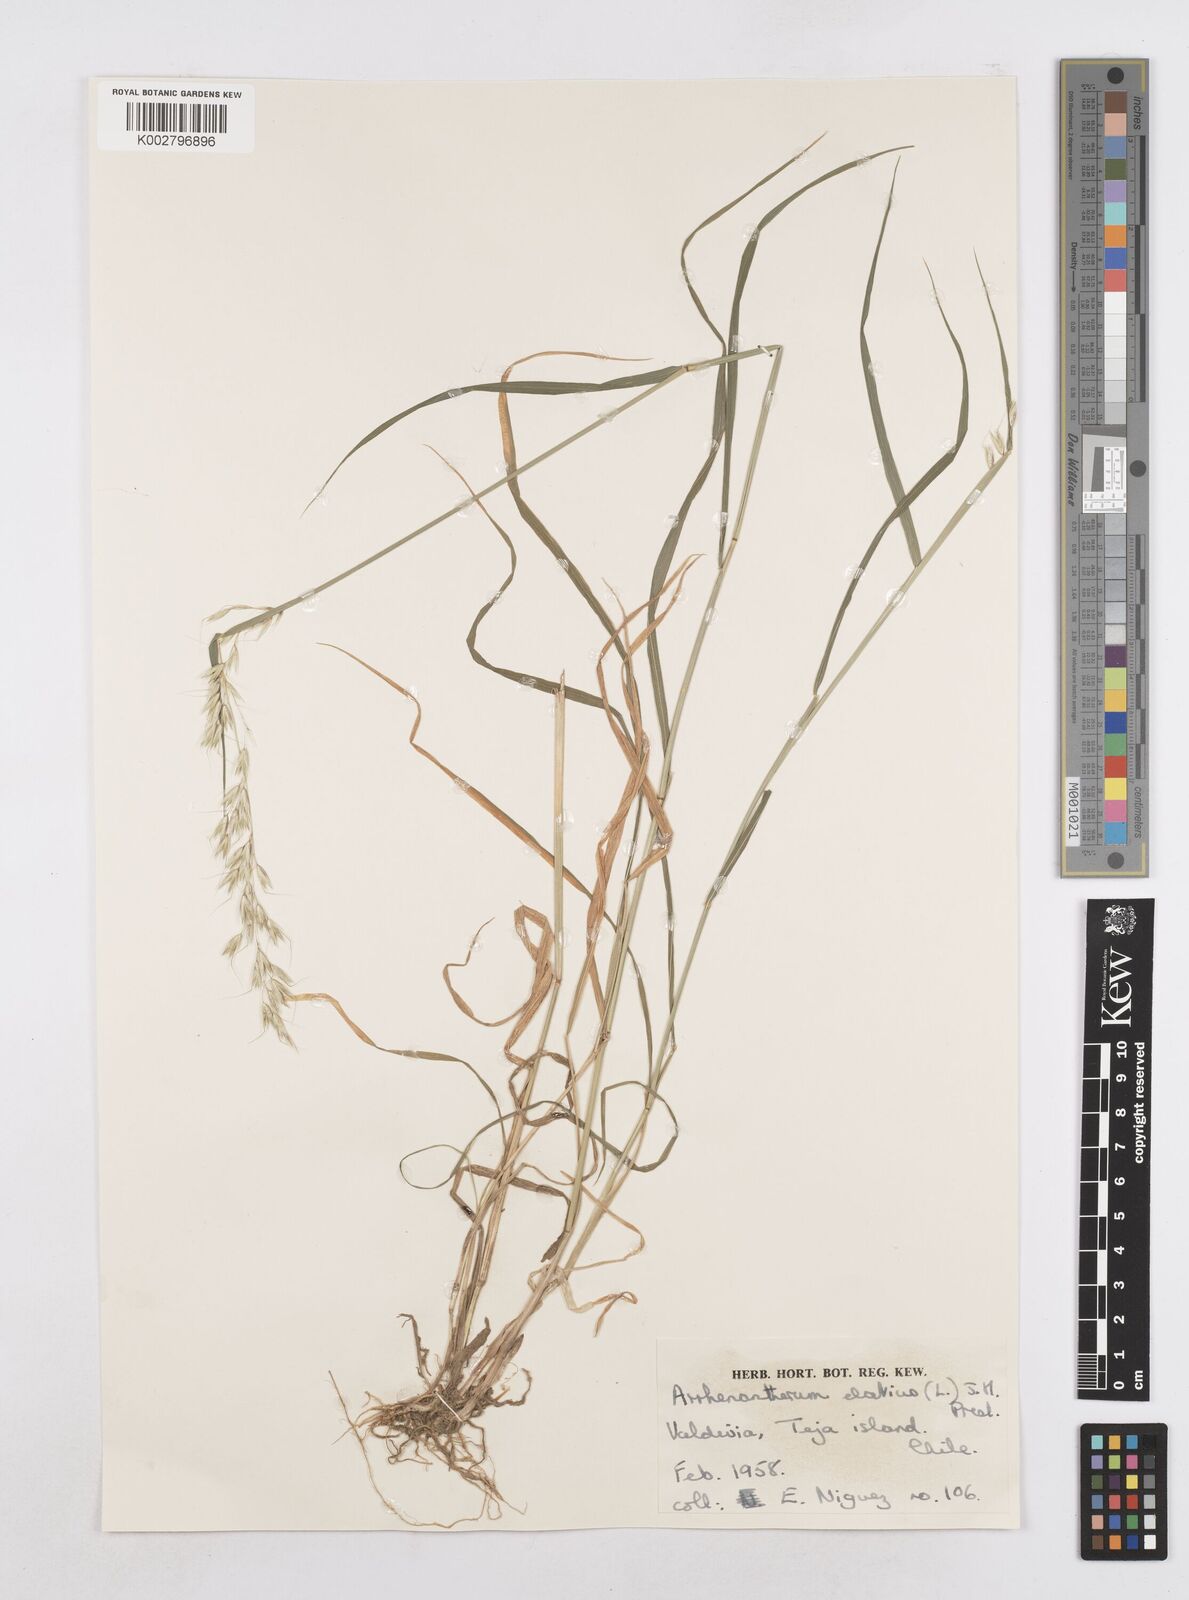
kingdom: Plantae
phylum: Tracheophyta
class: Liliopsida
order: Poales
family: Poaceae
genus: Arrhenatherum
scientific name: Arrhenatherum elatius
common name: Tall oatgrass
